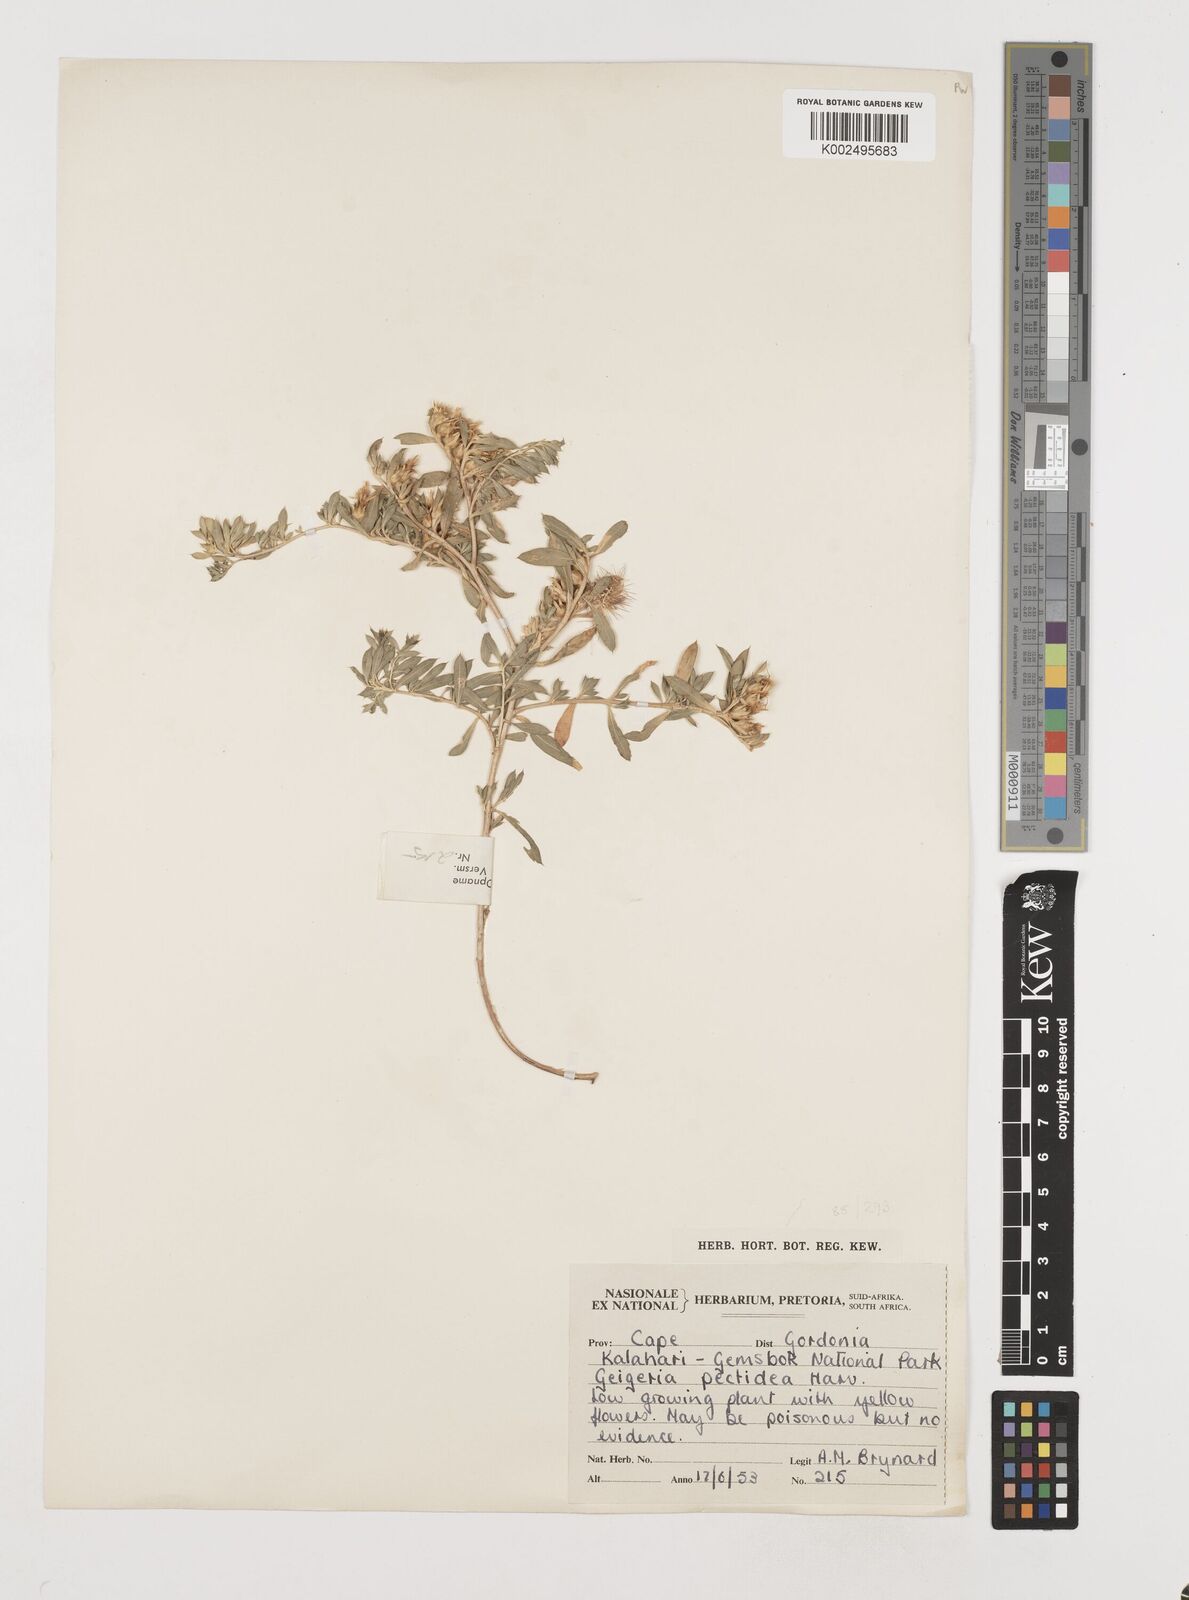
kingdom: Plantae
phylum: Tracheophyta
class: Magnoliopsida
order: Asterales
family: Asteraceae
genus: Geigeria
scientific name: Geigeria pectidea
